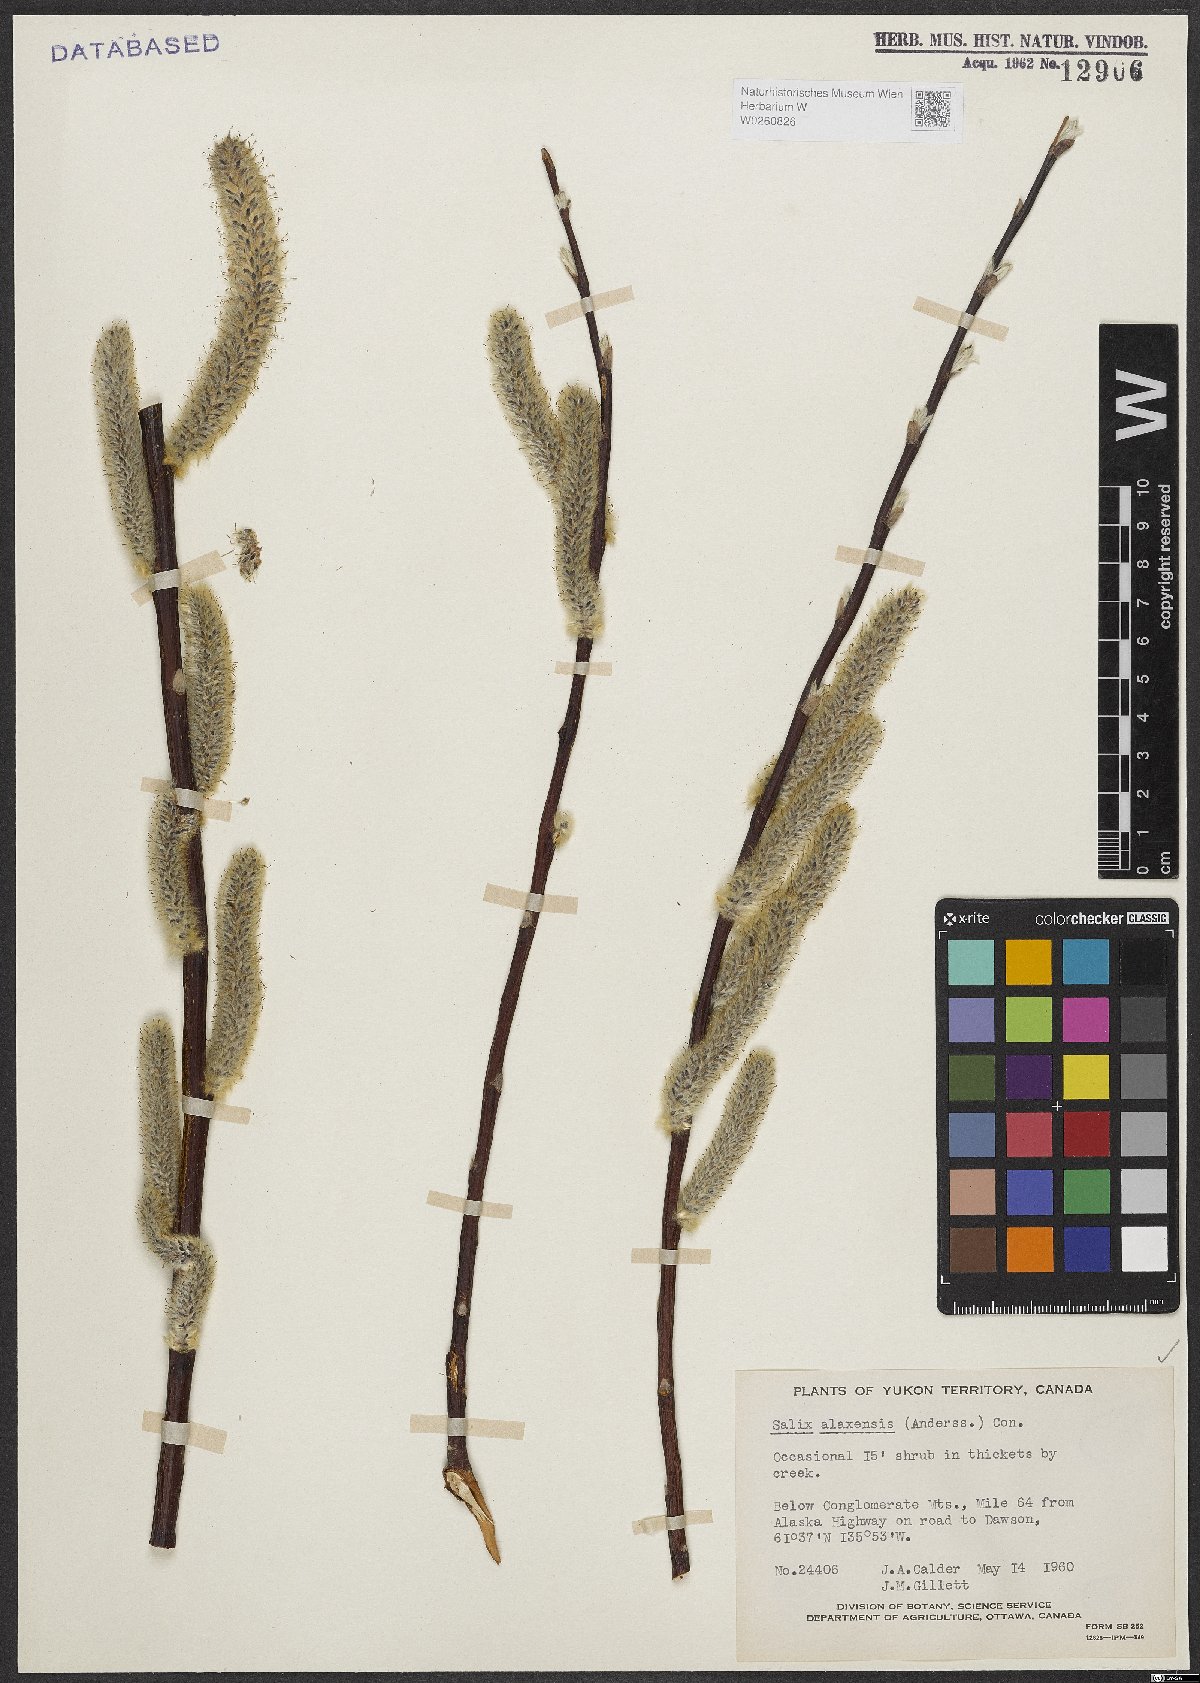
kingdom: Plantae
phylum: Tracheophyta
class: Magnoliopsida
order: Malpighiales
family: Salicaceae
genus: Salix
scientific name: Salix alaxensis
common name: Feltleaf willow
